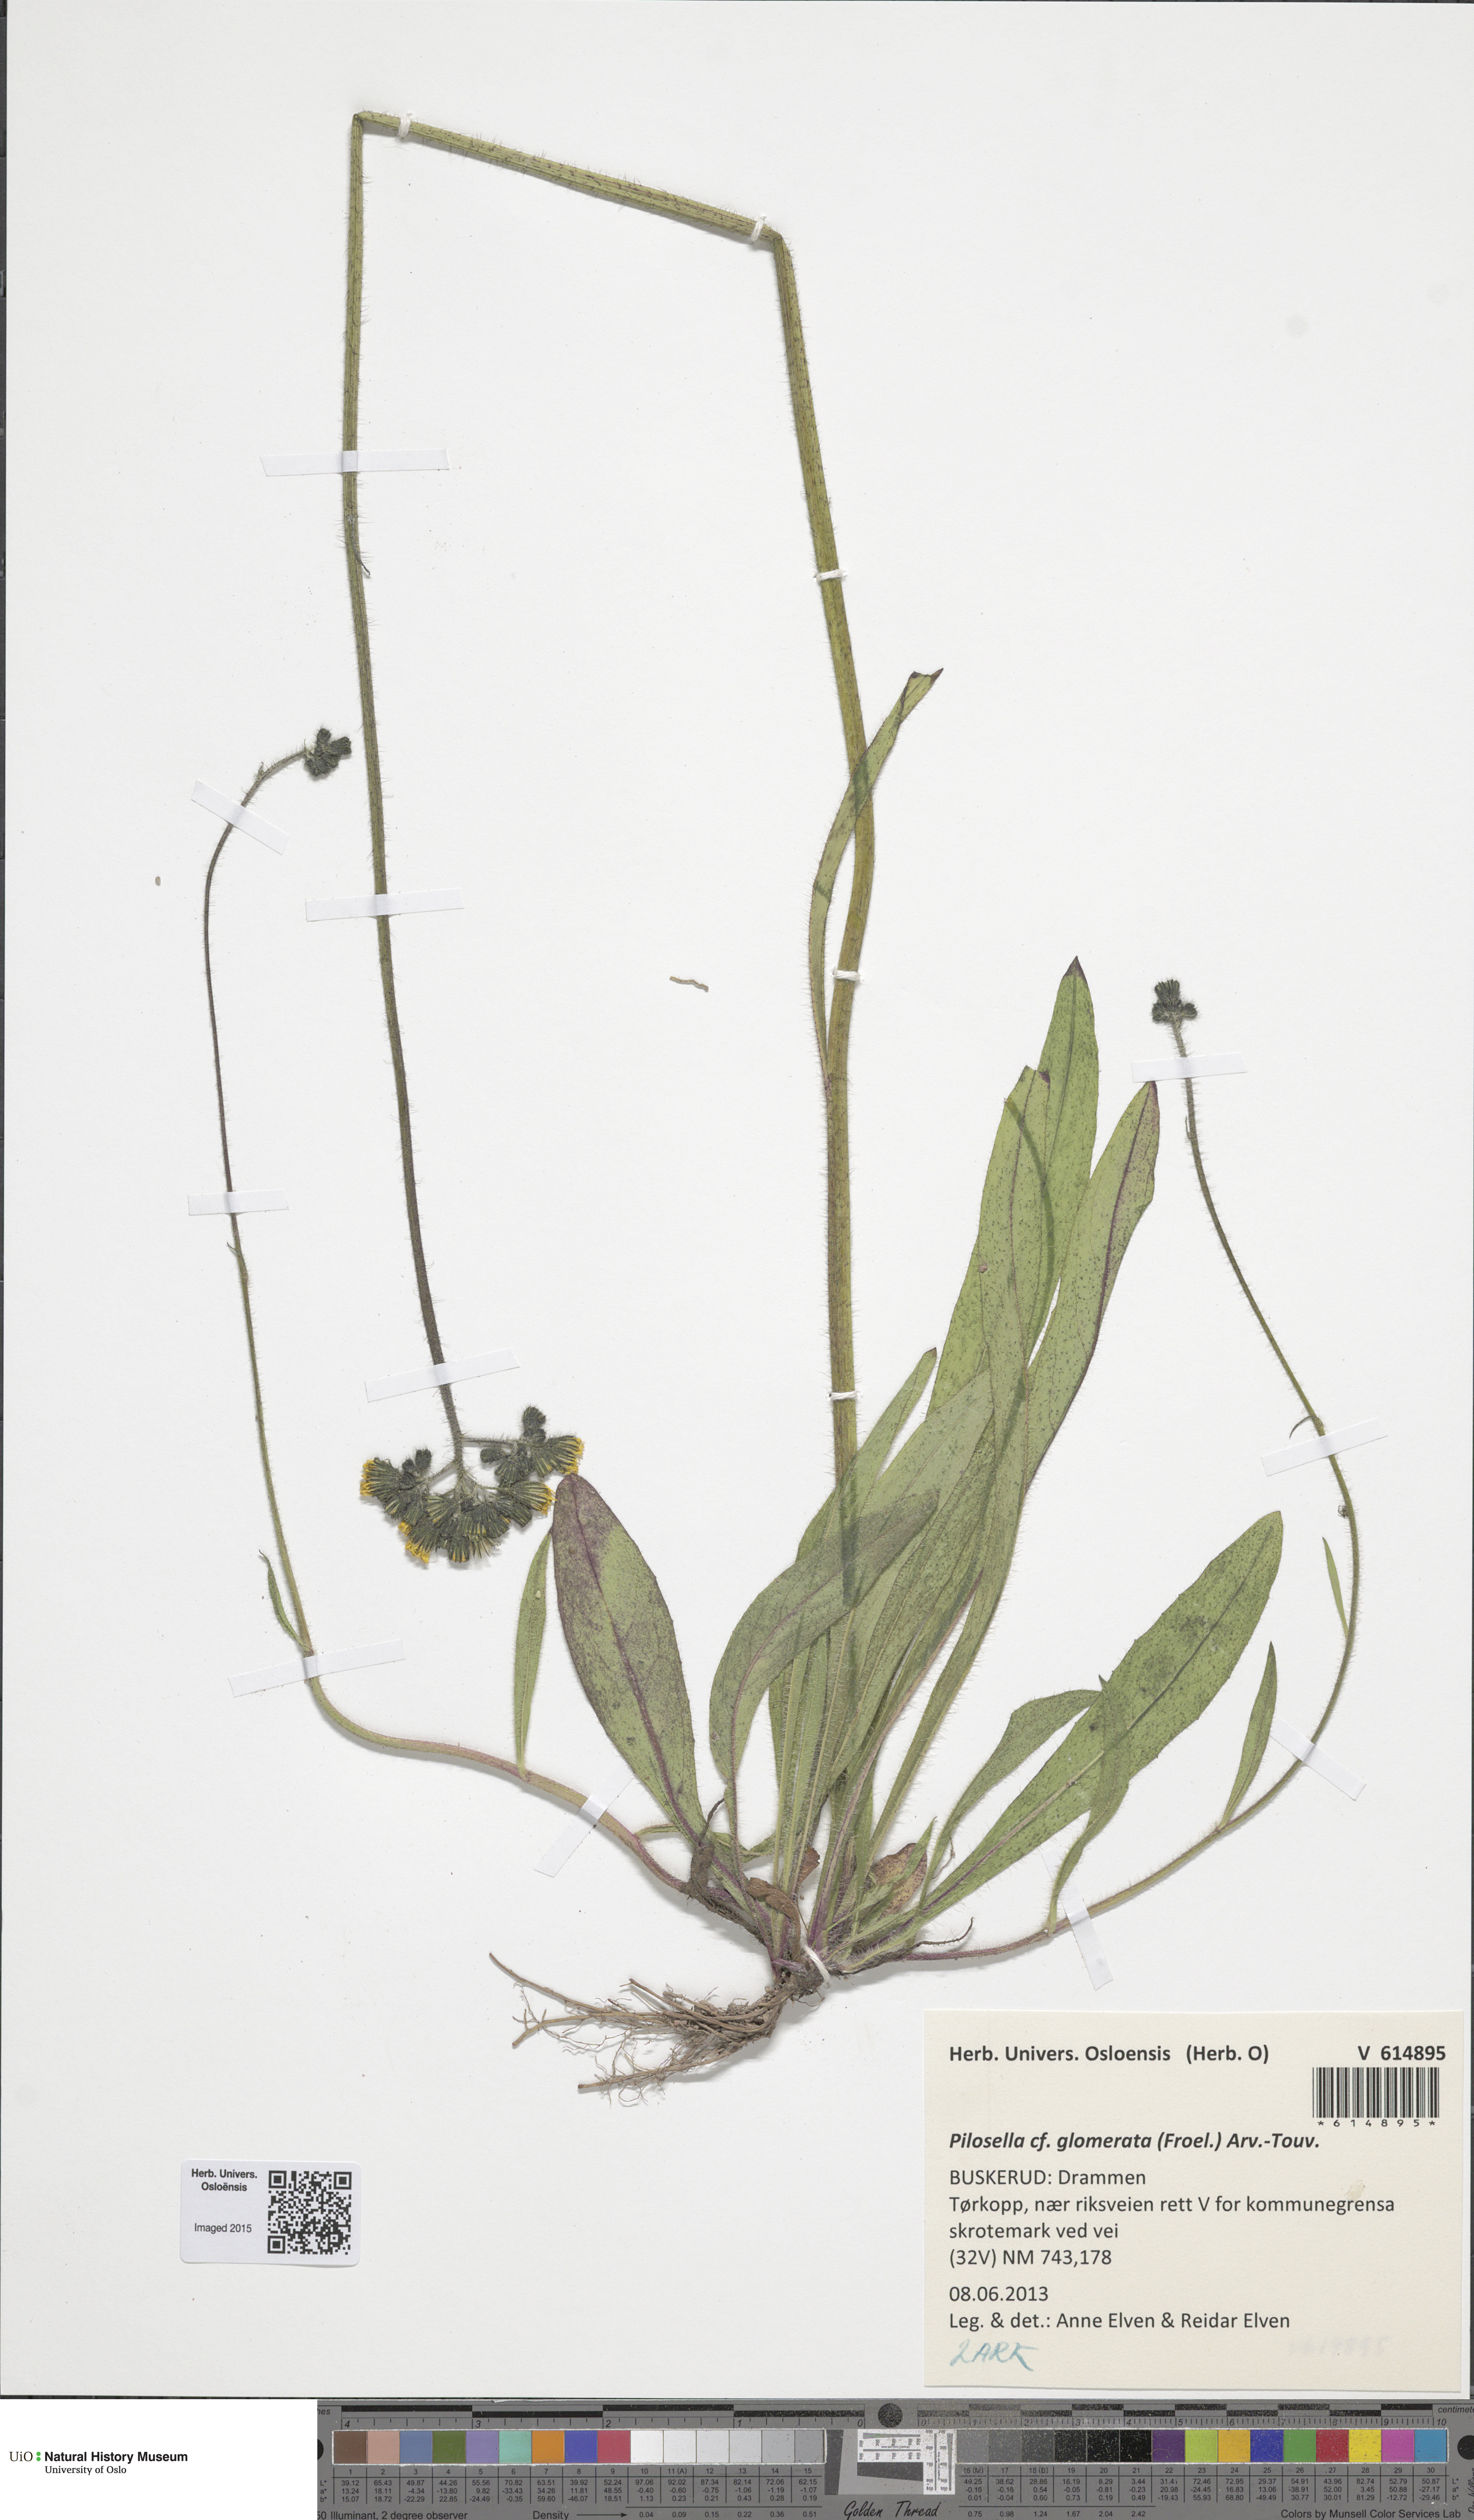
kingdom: Plantae
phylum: Tracheophyta
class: Magnoliopsida
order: Asterales
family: Asteraceae
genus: Pilosella
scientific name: Pilosella glomerata
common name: Queen devil hawkweed
